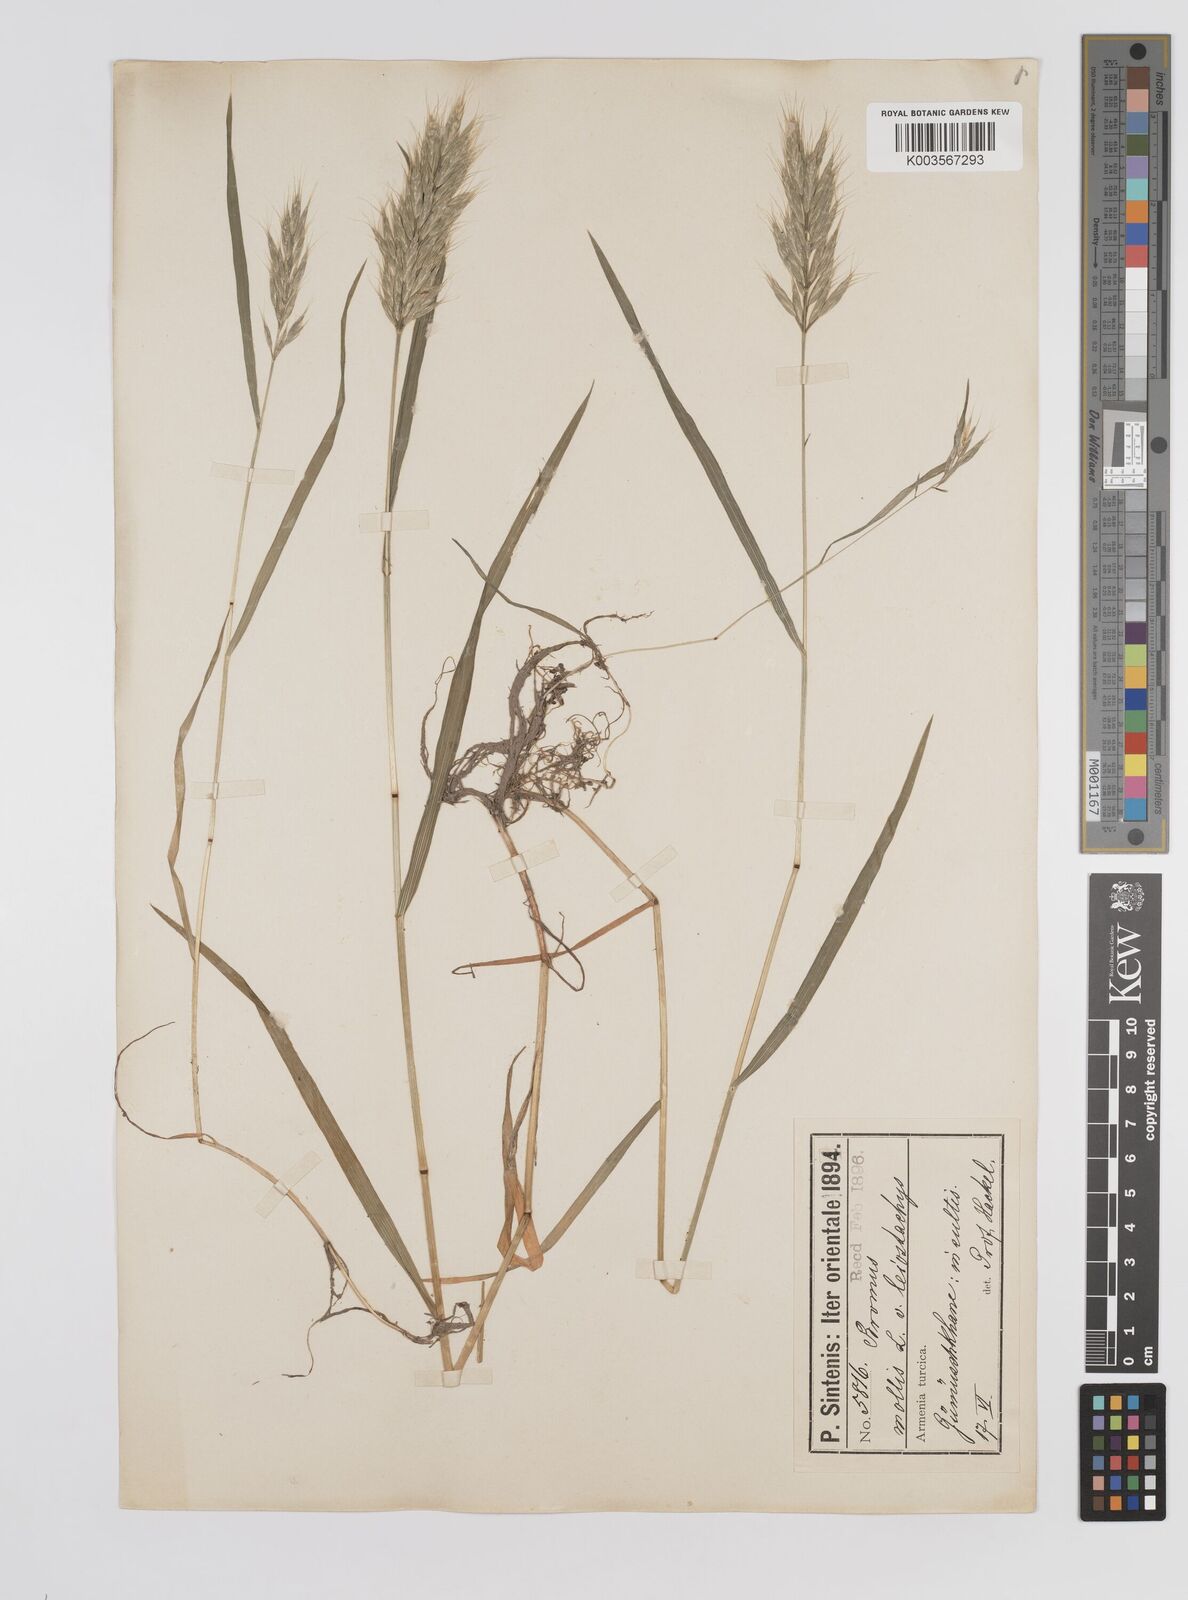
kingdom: Plantae
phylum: Tracheophyta
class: Liliopsida
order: Poales
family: Poaceae
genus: Bromus
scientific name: Bromus hordeaceus
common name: Soft brome
